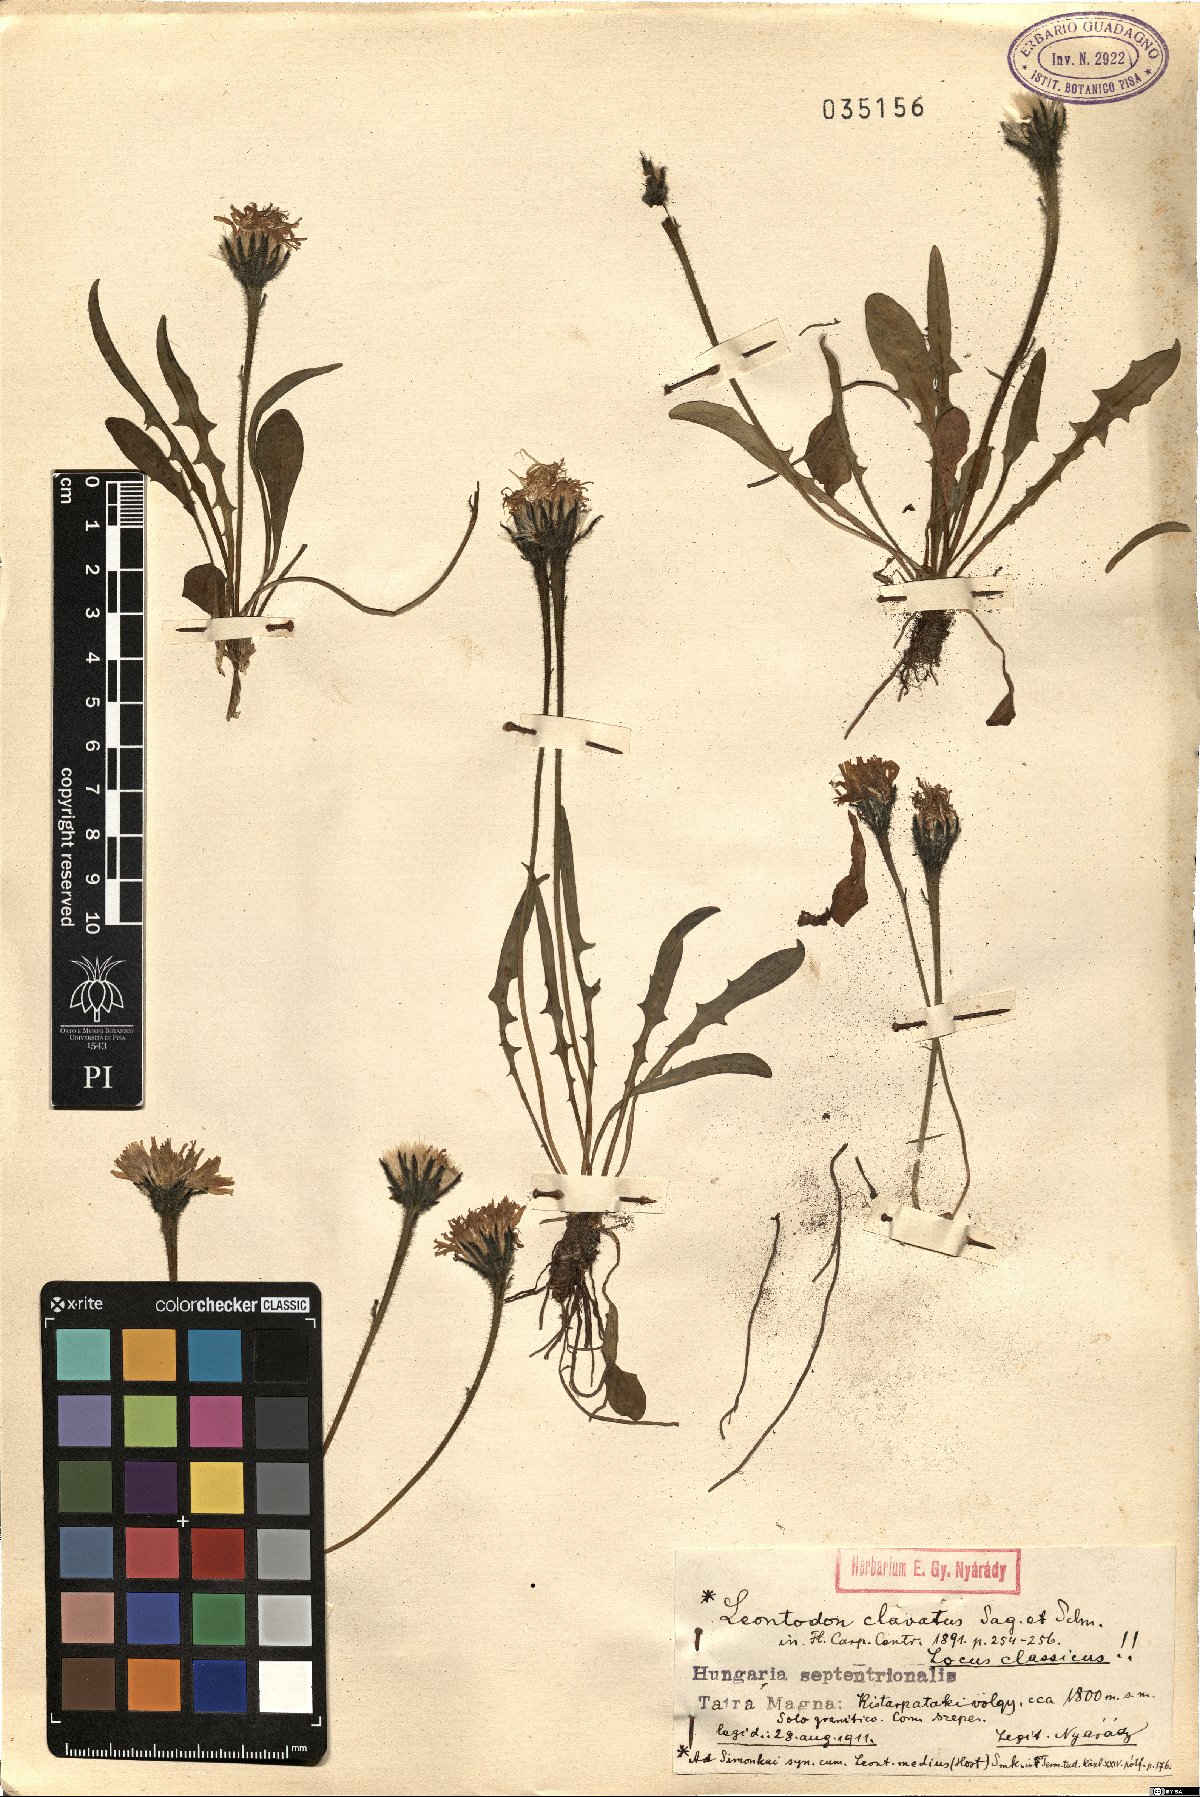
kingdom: Plantae
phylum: Tracheophyta
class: Magnoliopsida
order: Asterales
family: Asteraceae
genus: Scorzoneroides
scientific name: Scorzoneroides hispidula
